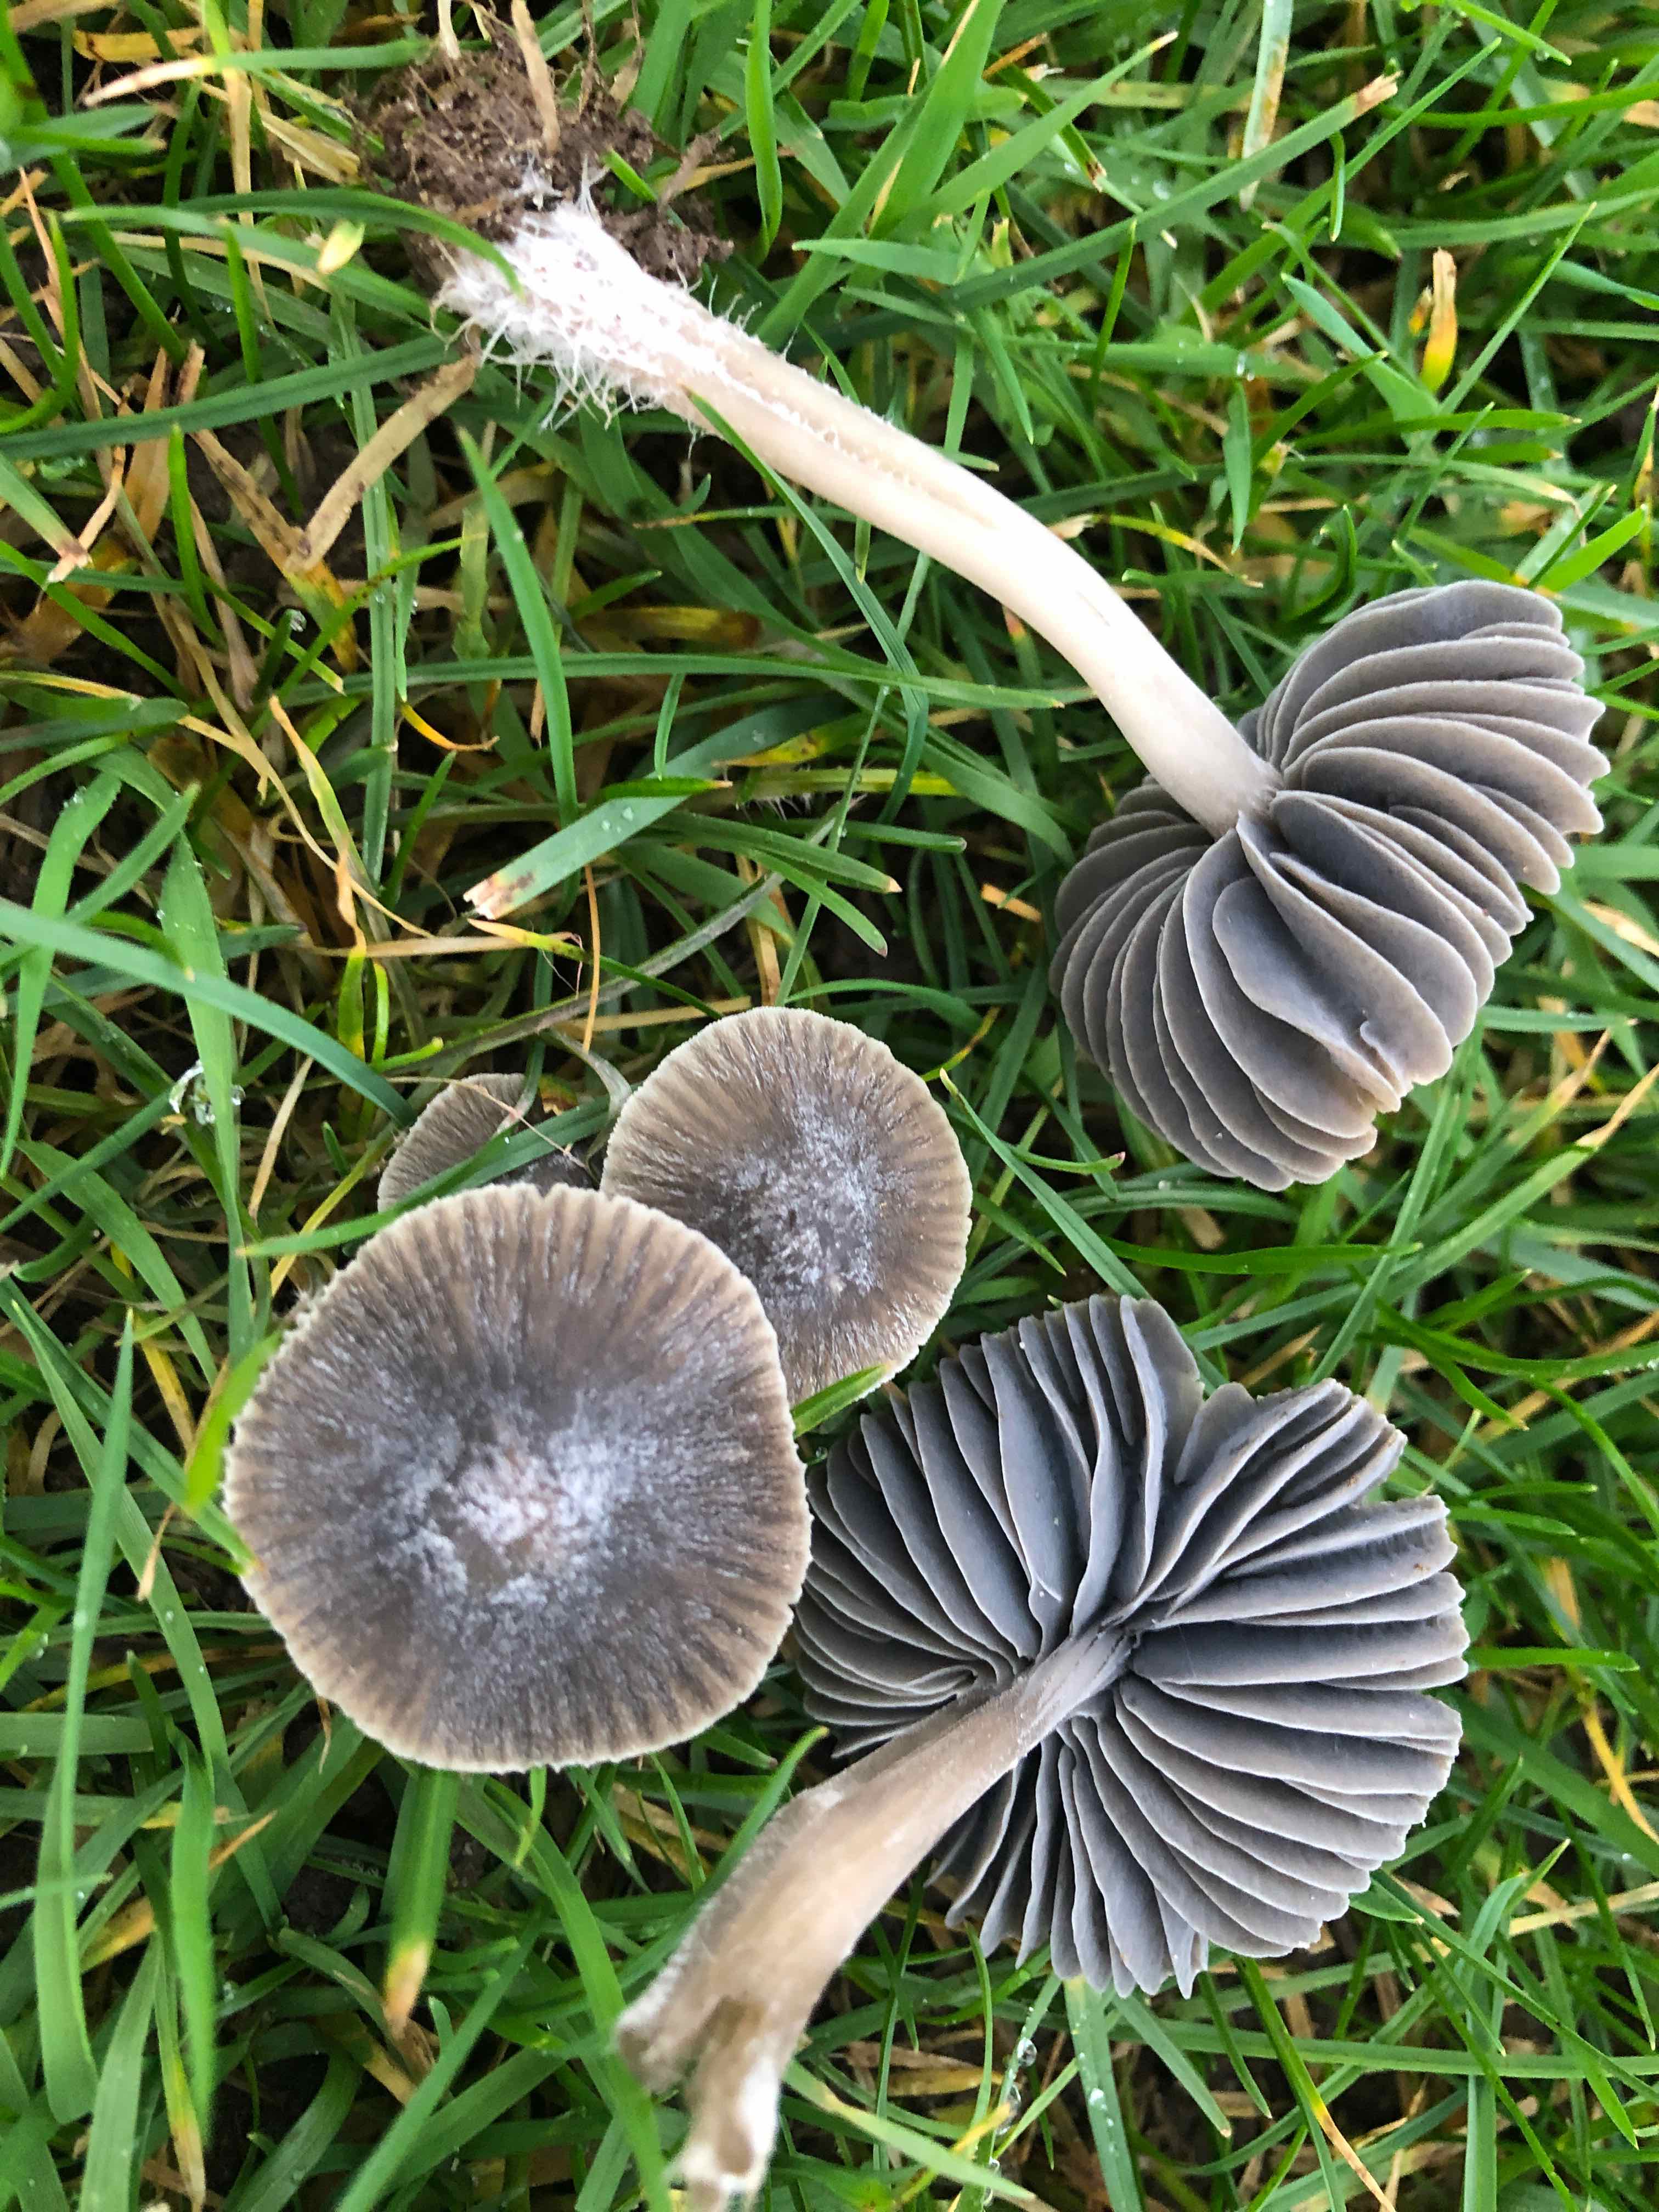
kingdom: Fungi
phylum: Basidiomycota
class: Agaricomycetes
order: Agaricales
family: Mycenaceae
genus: Mycena
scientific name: Mycena aetites
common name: plæne-huesvamp
